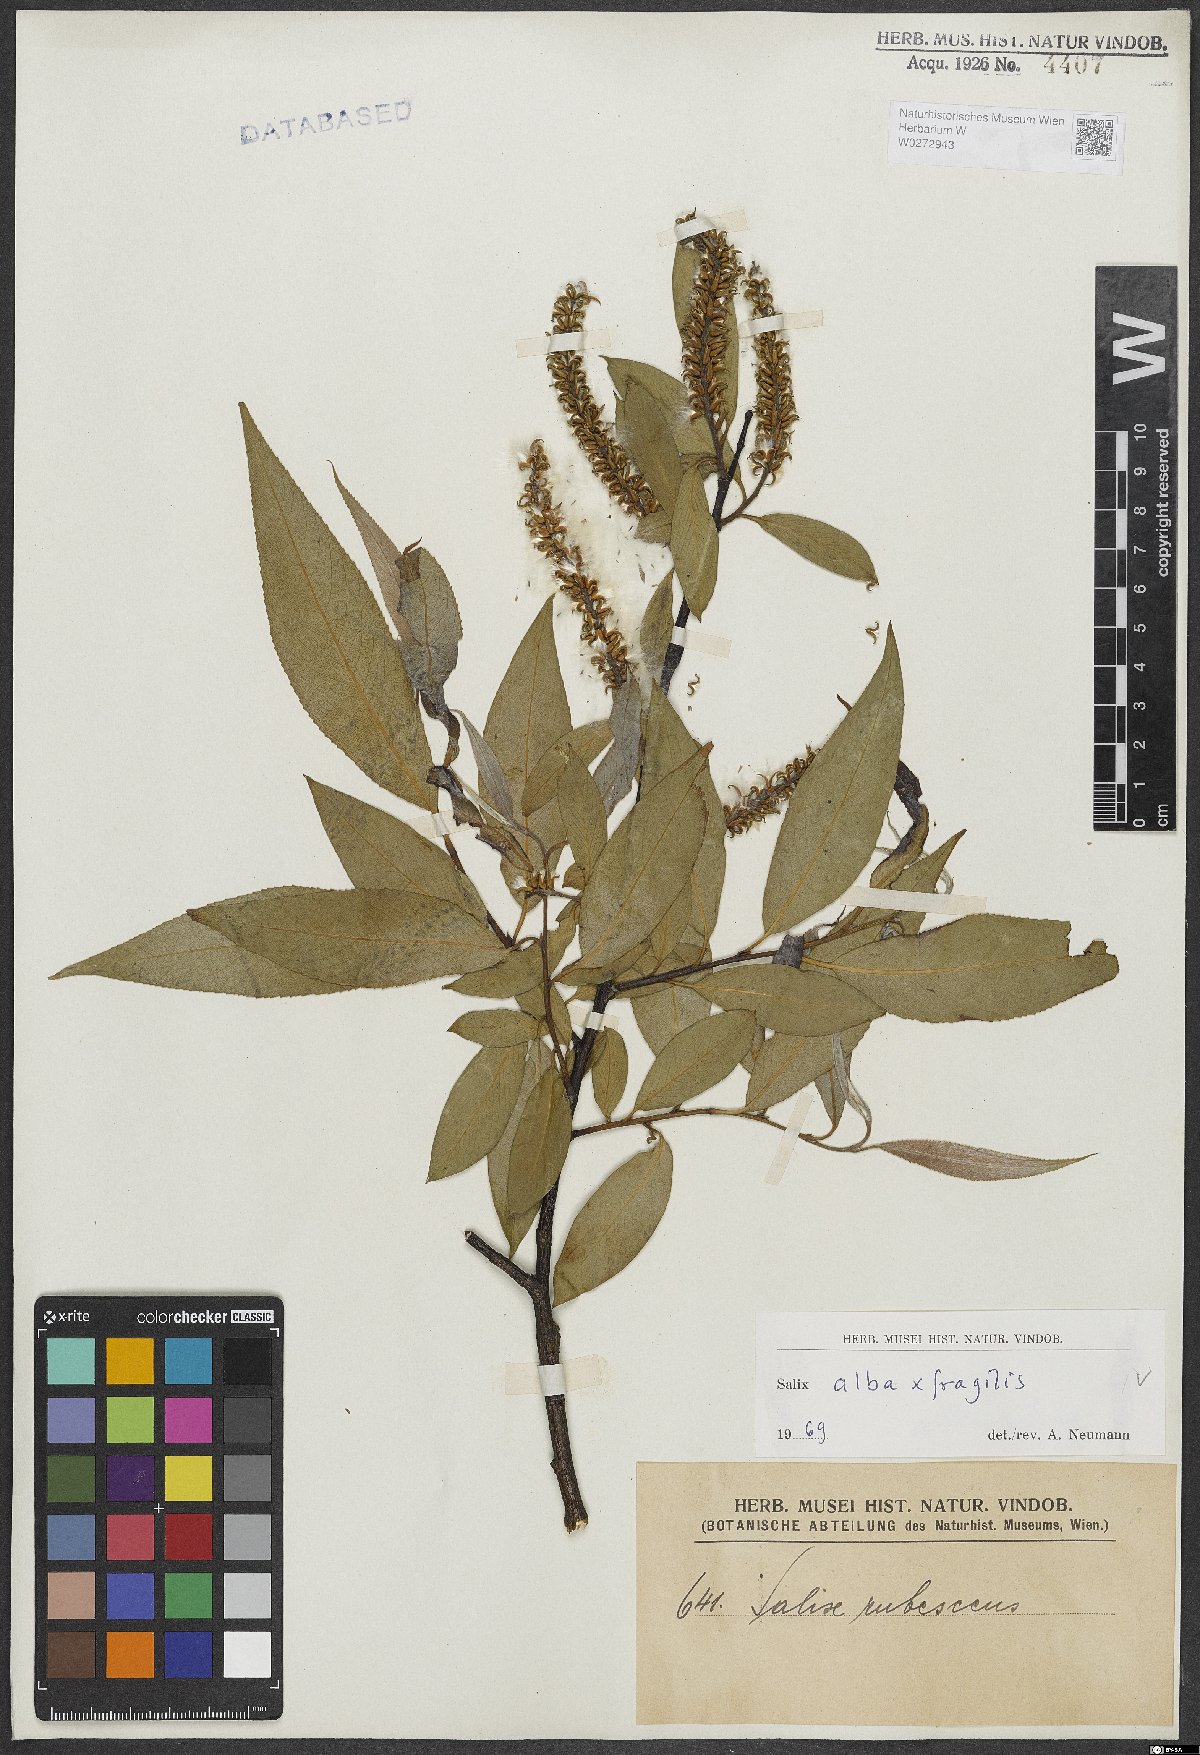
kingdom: Plantae
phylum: Tracheophyta
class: Magnoliopsida
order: Malpighiales
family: Salicaceae
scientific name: Salicaceae
